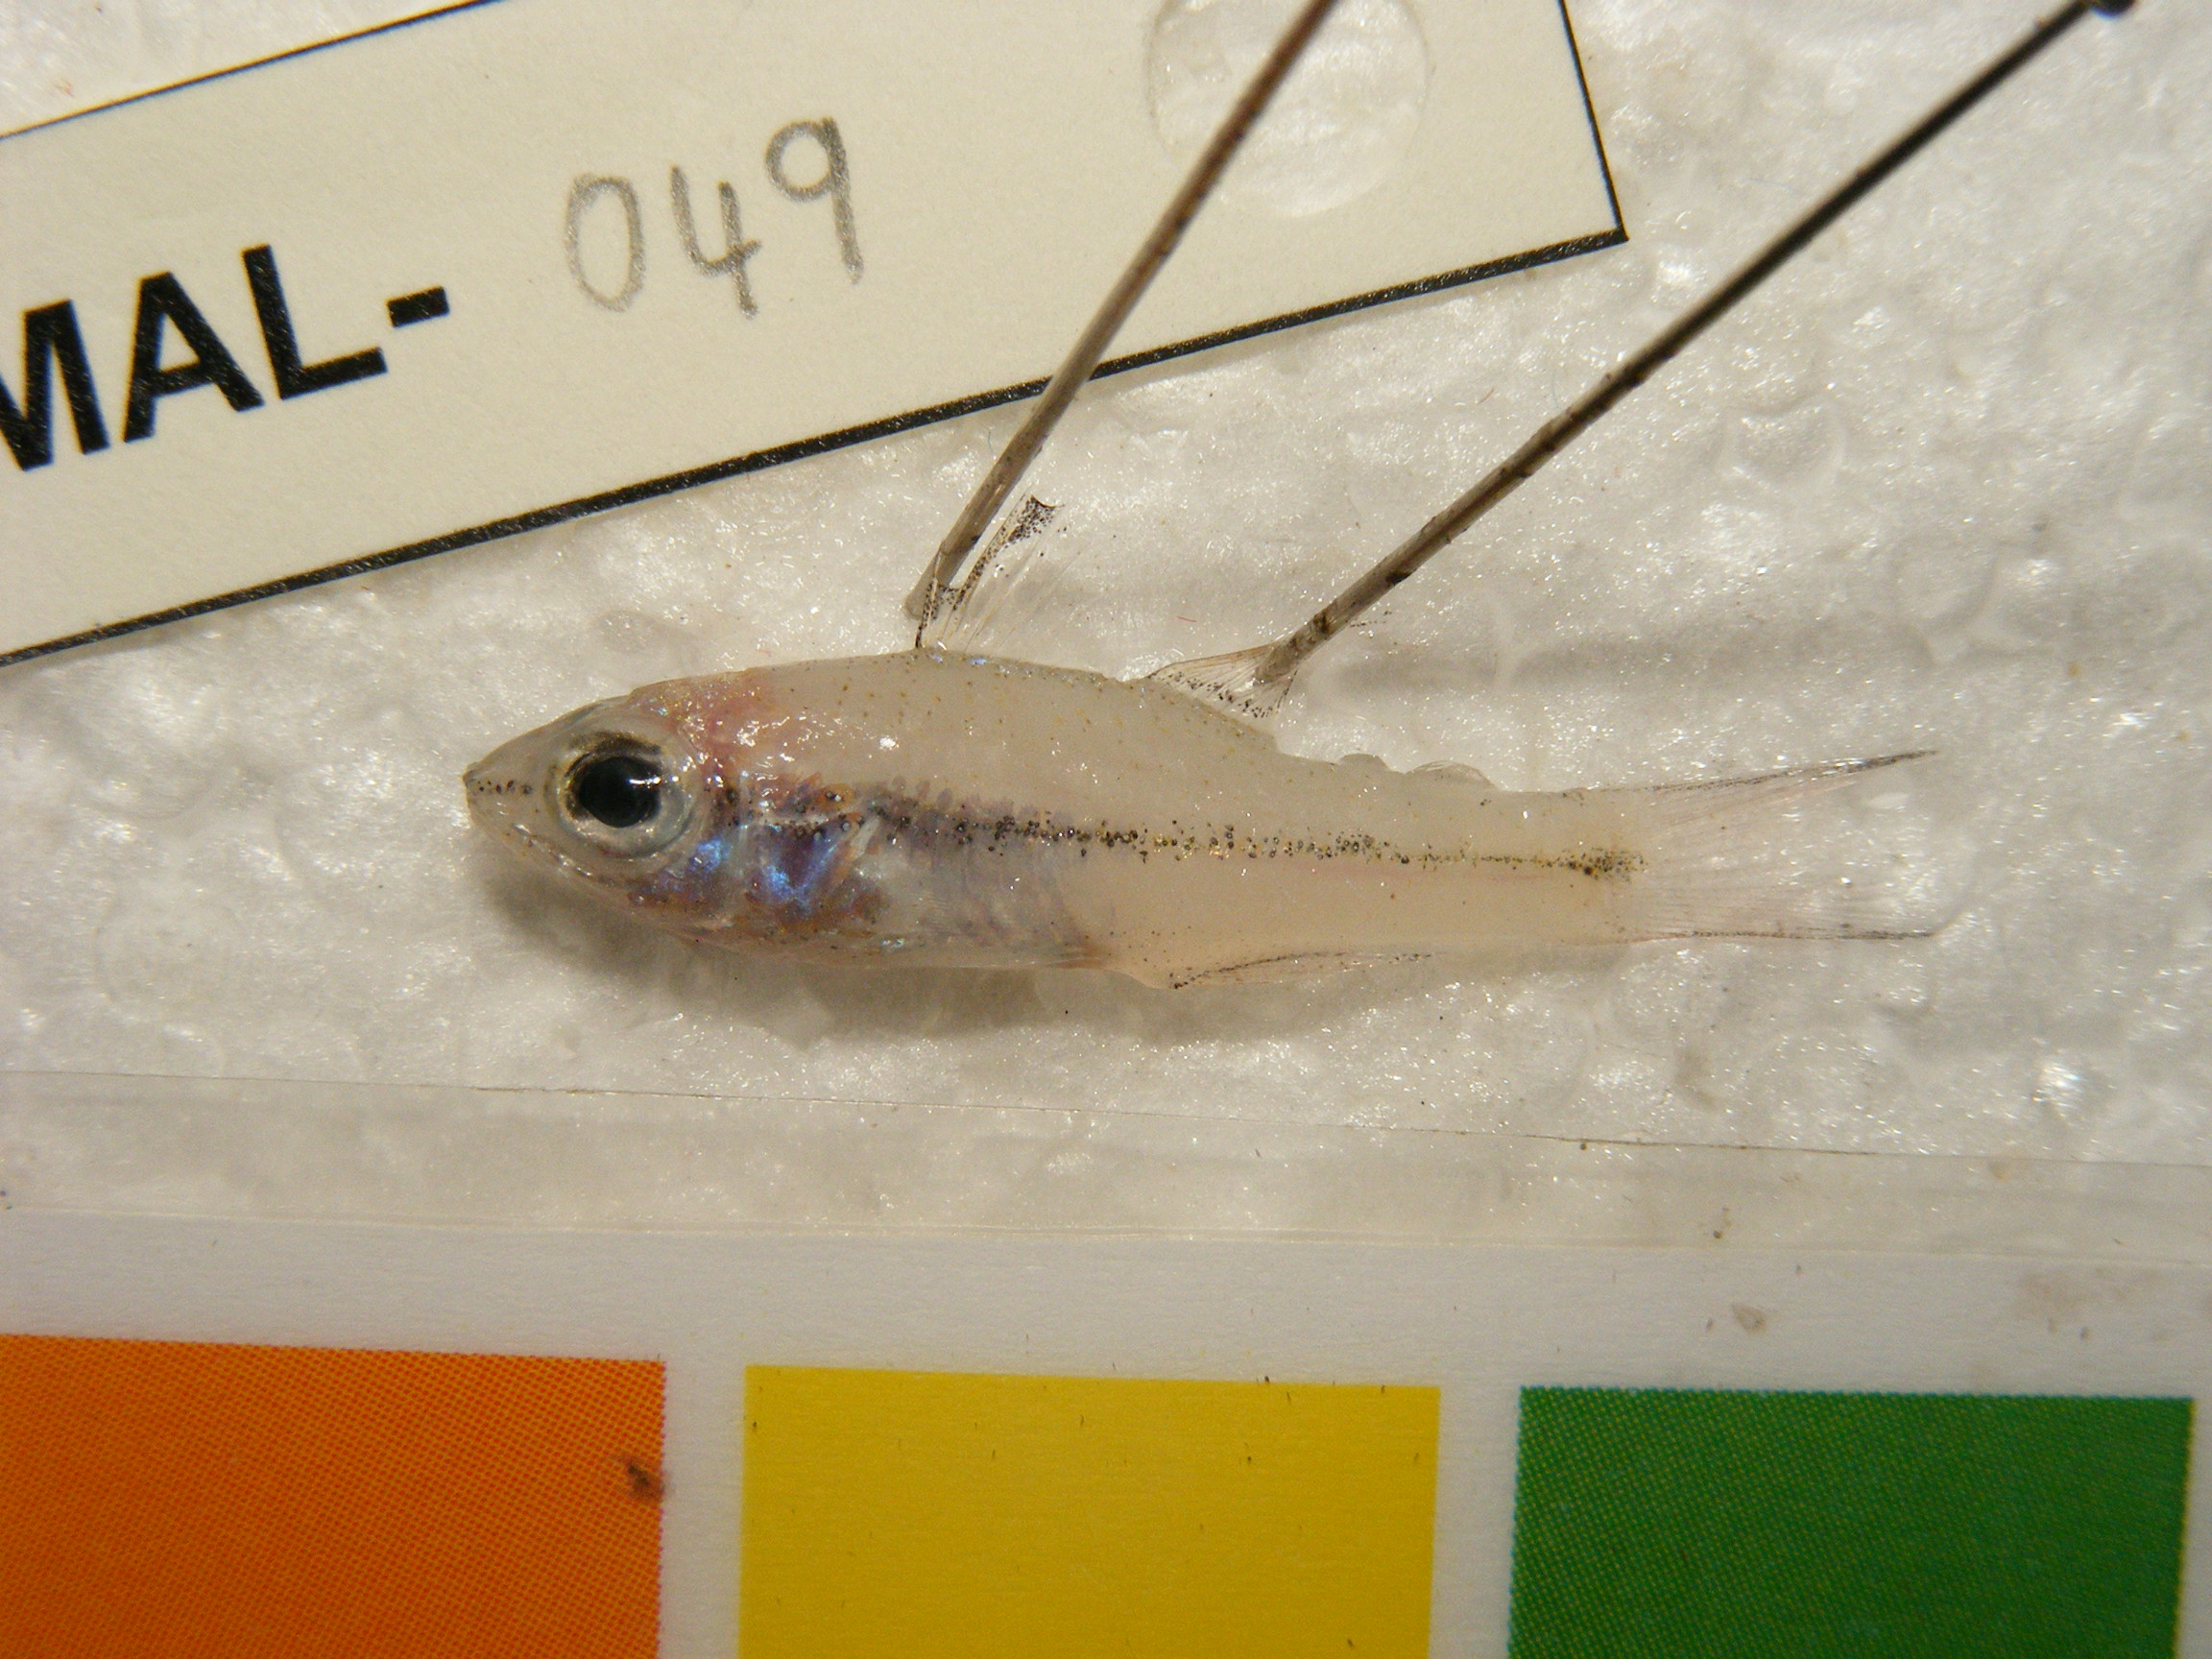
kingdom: Animalia
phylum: Chordata
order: Perciformes
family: Apogonidae
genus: Pristiapogon
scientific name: Pristiapogon fraenatus
